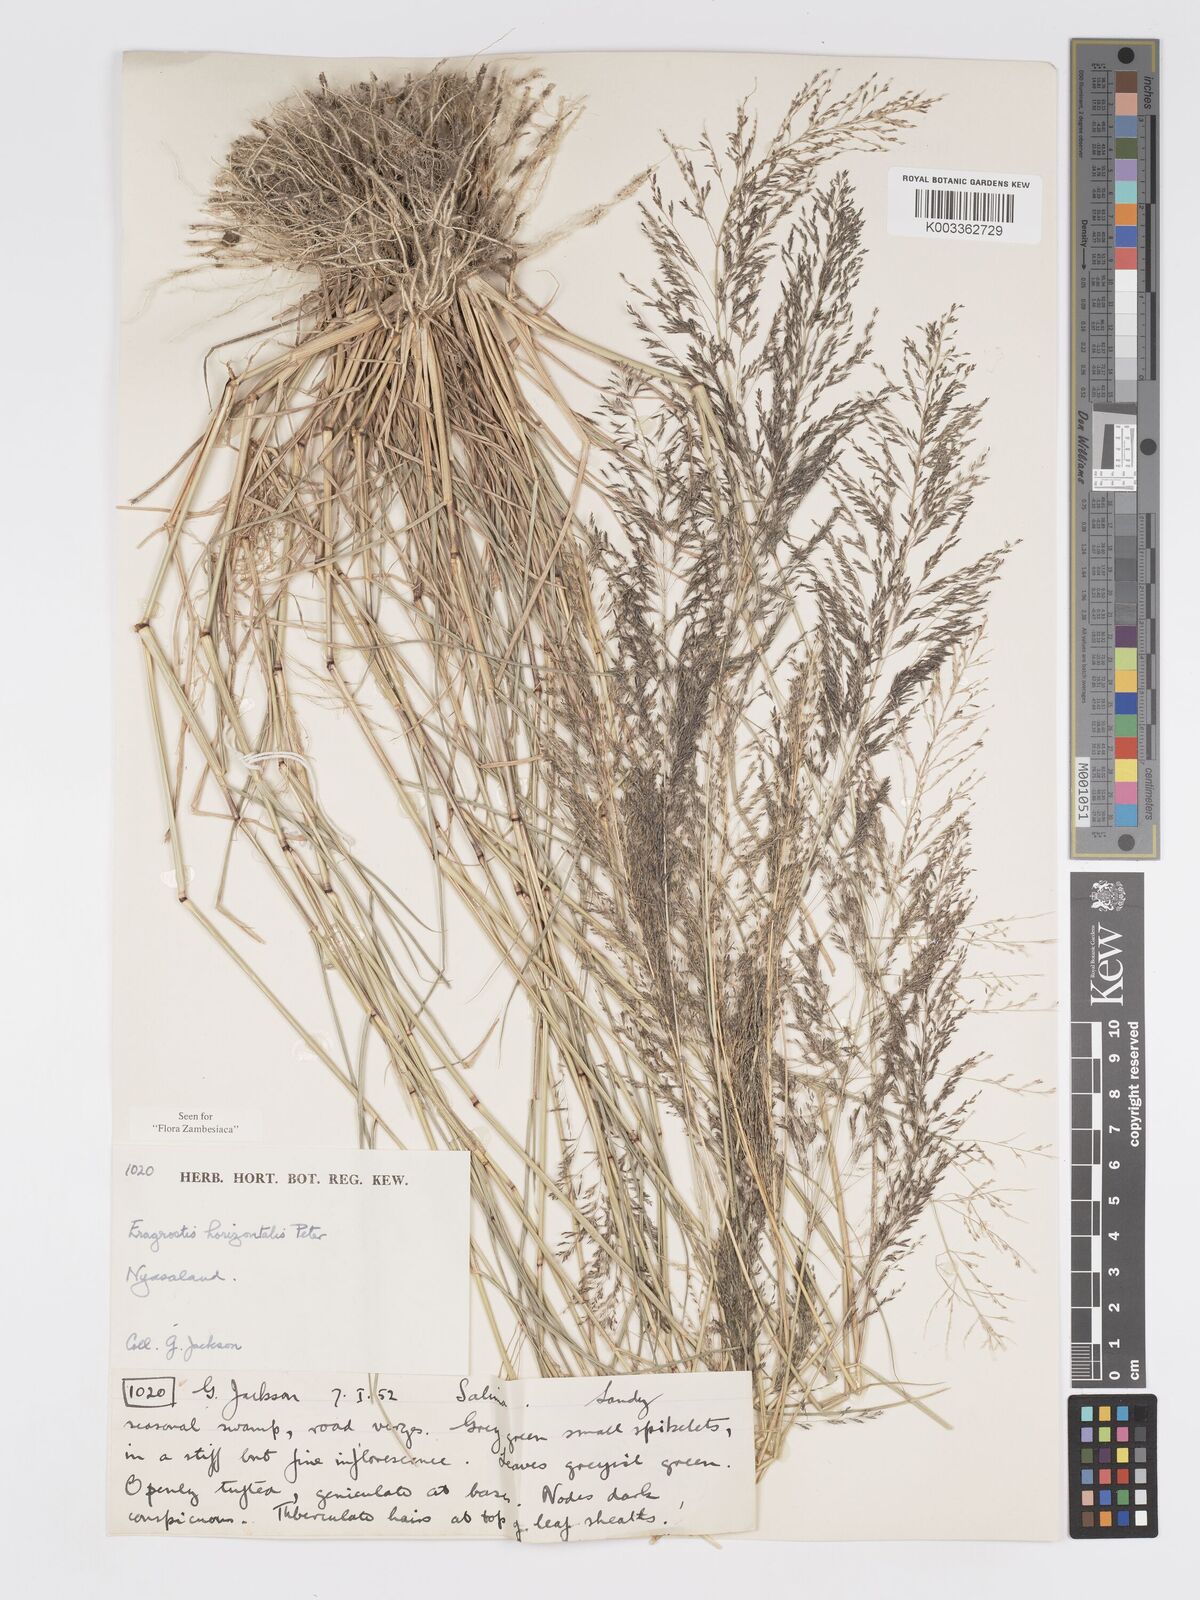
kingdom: Plantae
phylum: Tracheophyta
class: Liliopsida
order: Poales
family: Poaceae
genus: Eragrostis
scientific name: Eragrostis cylindriflora
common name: Cylinderflower lovegrass
